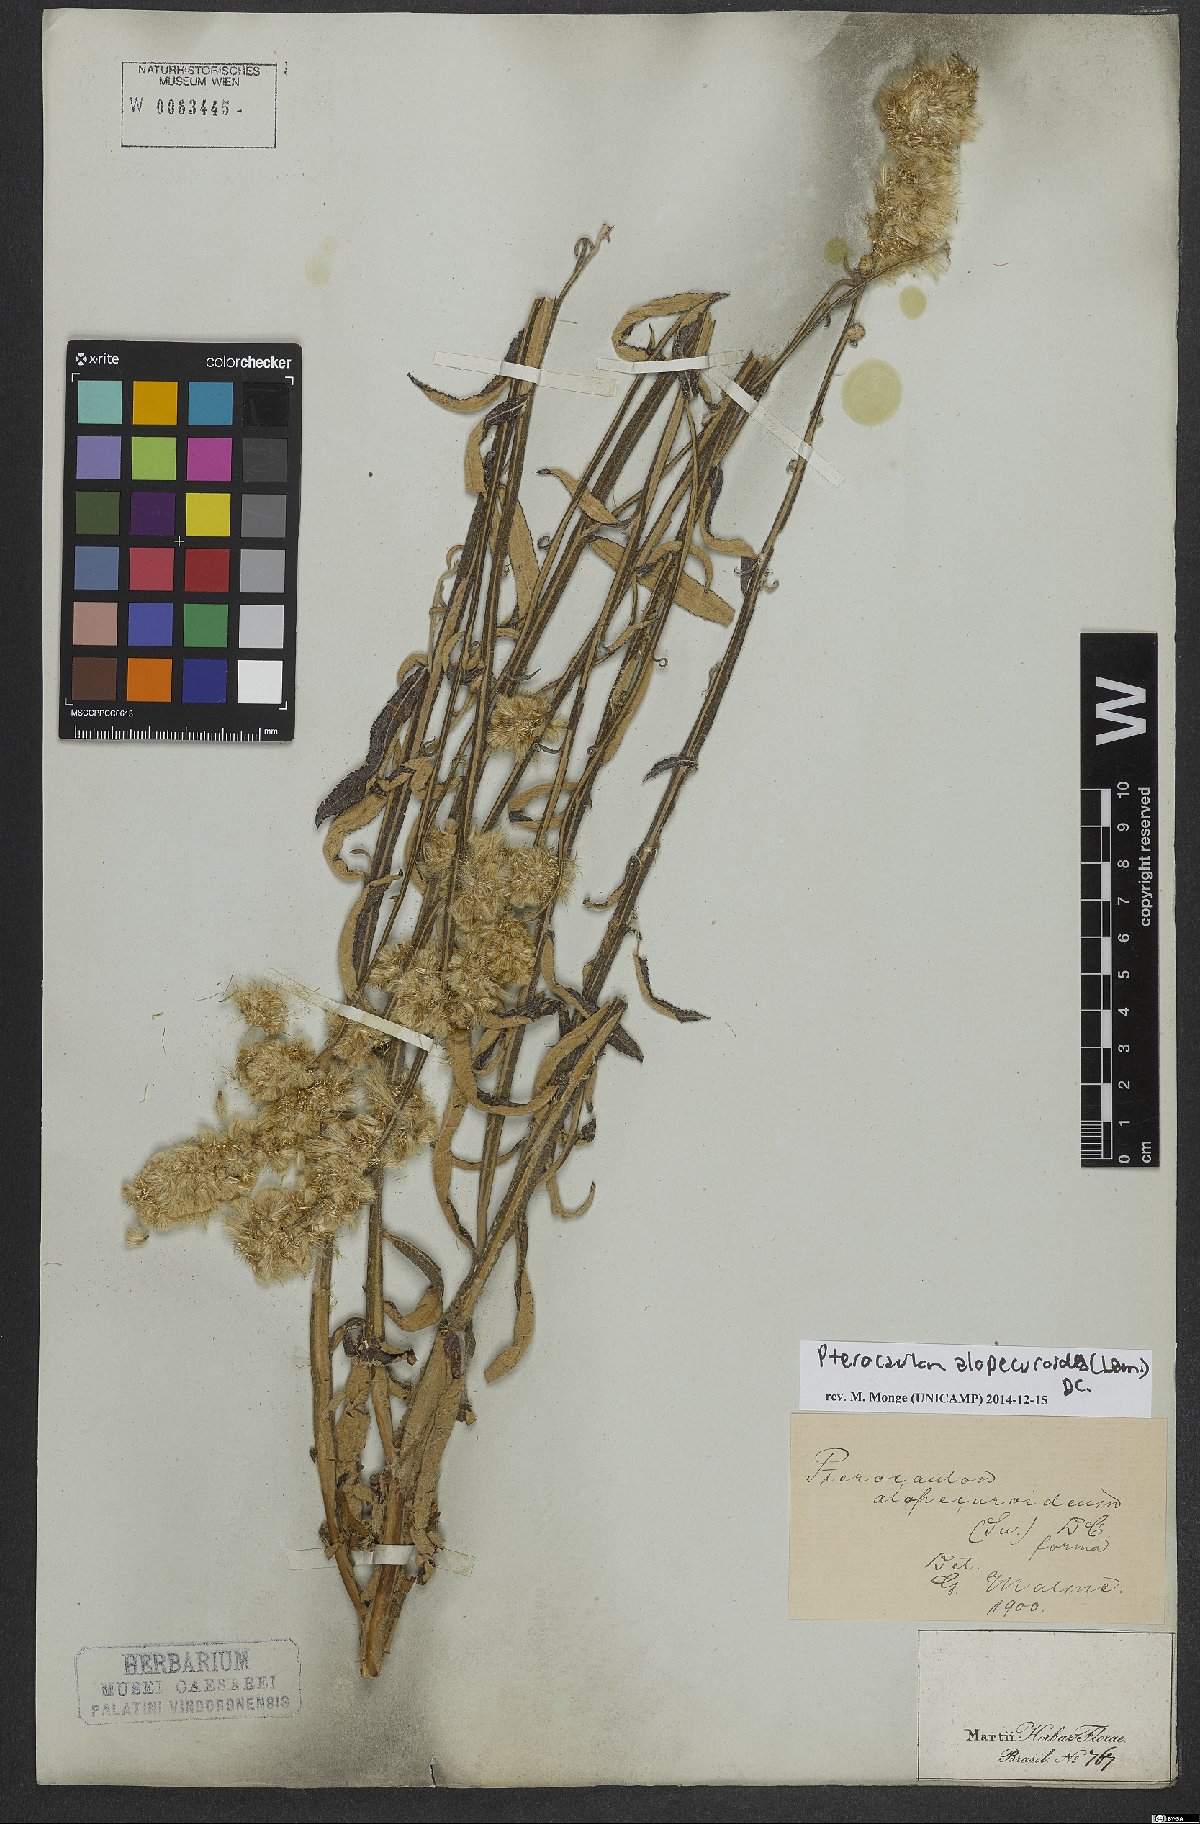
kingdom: Plantae
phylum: Tracheophyta
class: Magnoliopsida
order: Asterales
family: Asteraceae
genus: Pterocaulon
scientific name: Pterocaulon alopecuroides
